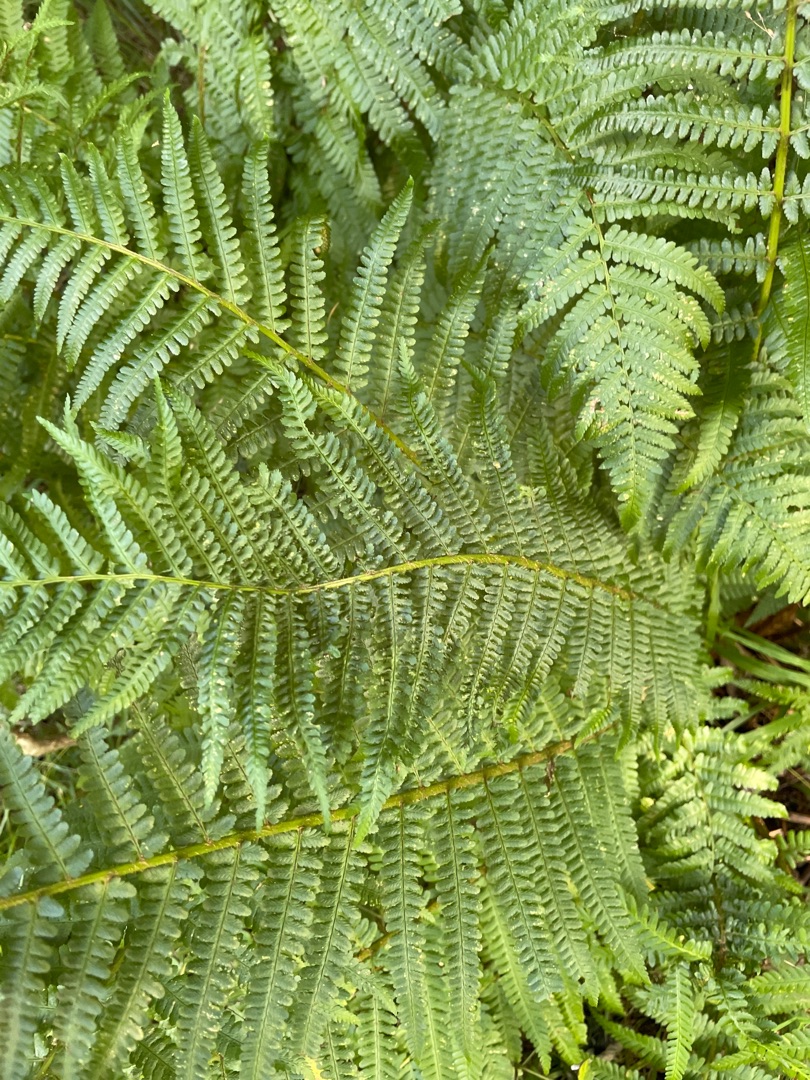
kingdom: Plantae
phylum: Tracheophyta
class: Polypodiopsida
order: Polypodiales
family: Dryopteridaceae
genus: Dryopteris
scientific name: Dryopteris filix-mas
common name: Almindelig mangeløv
